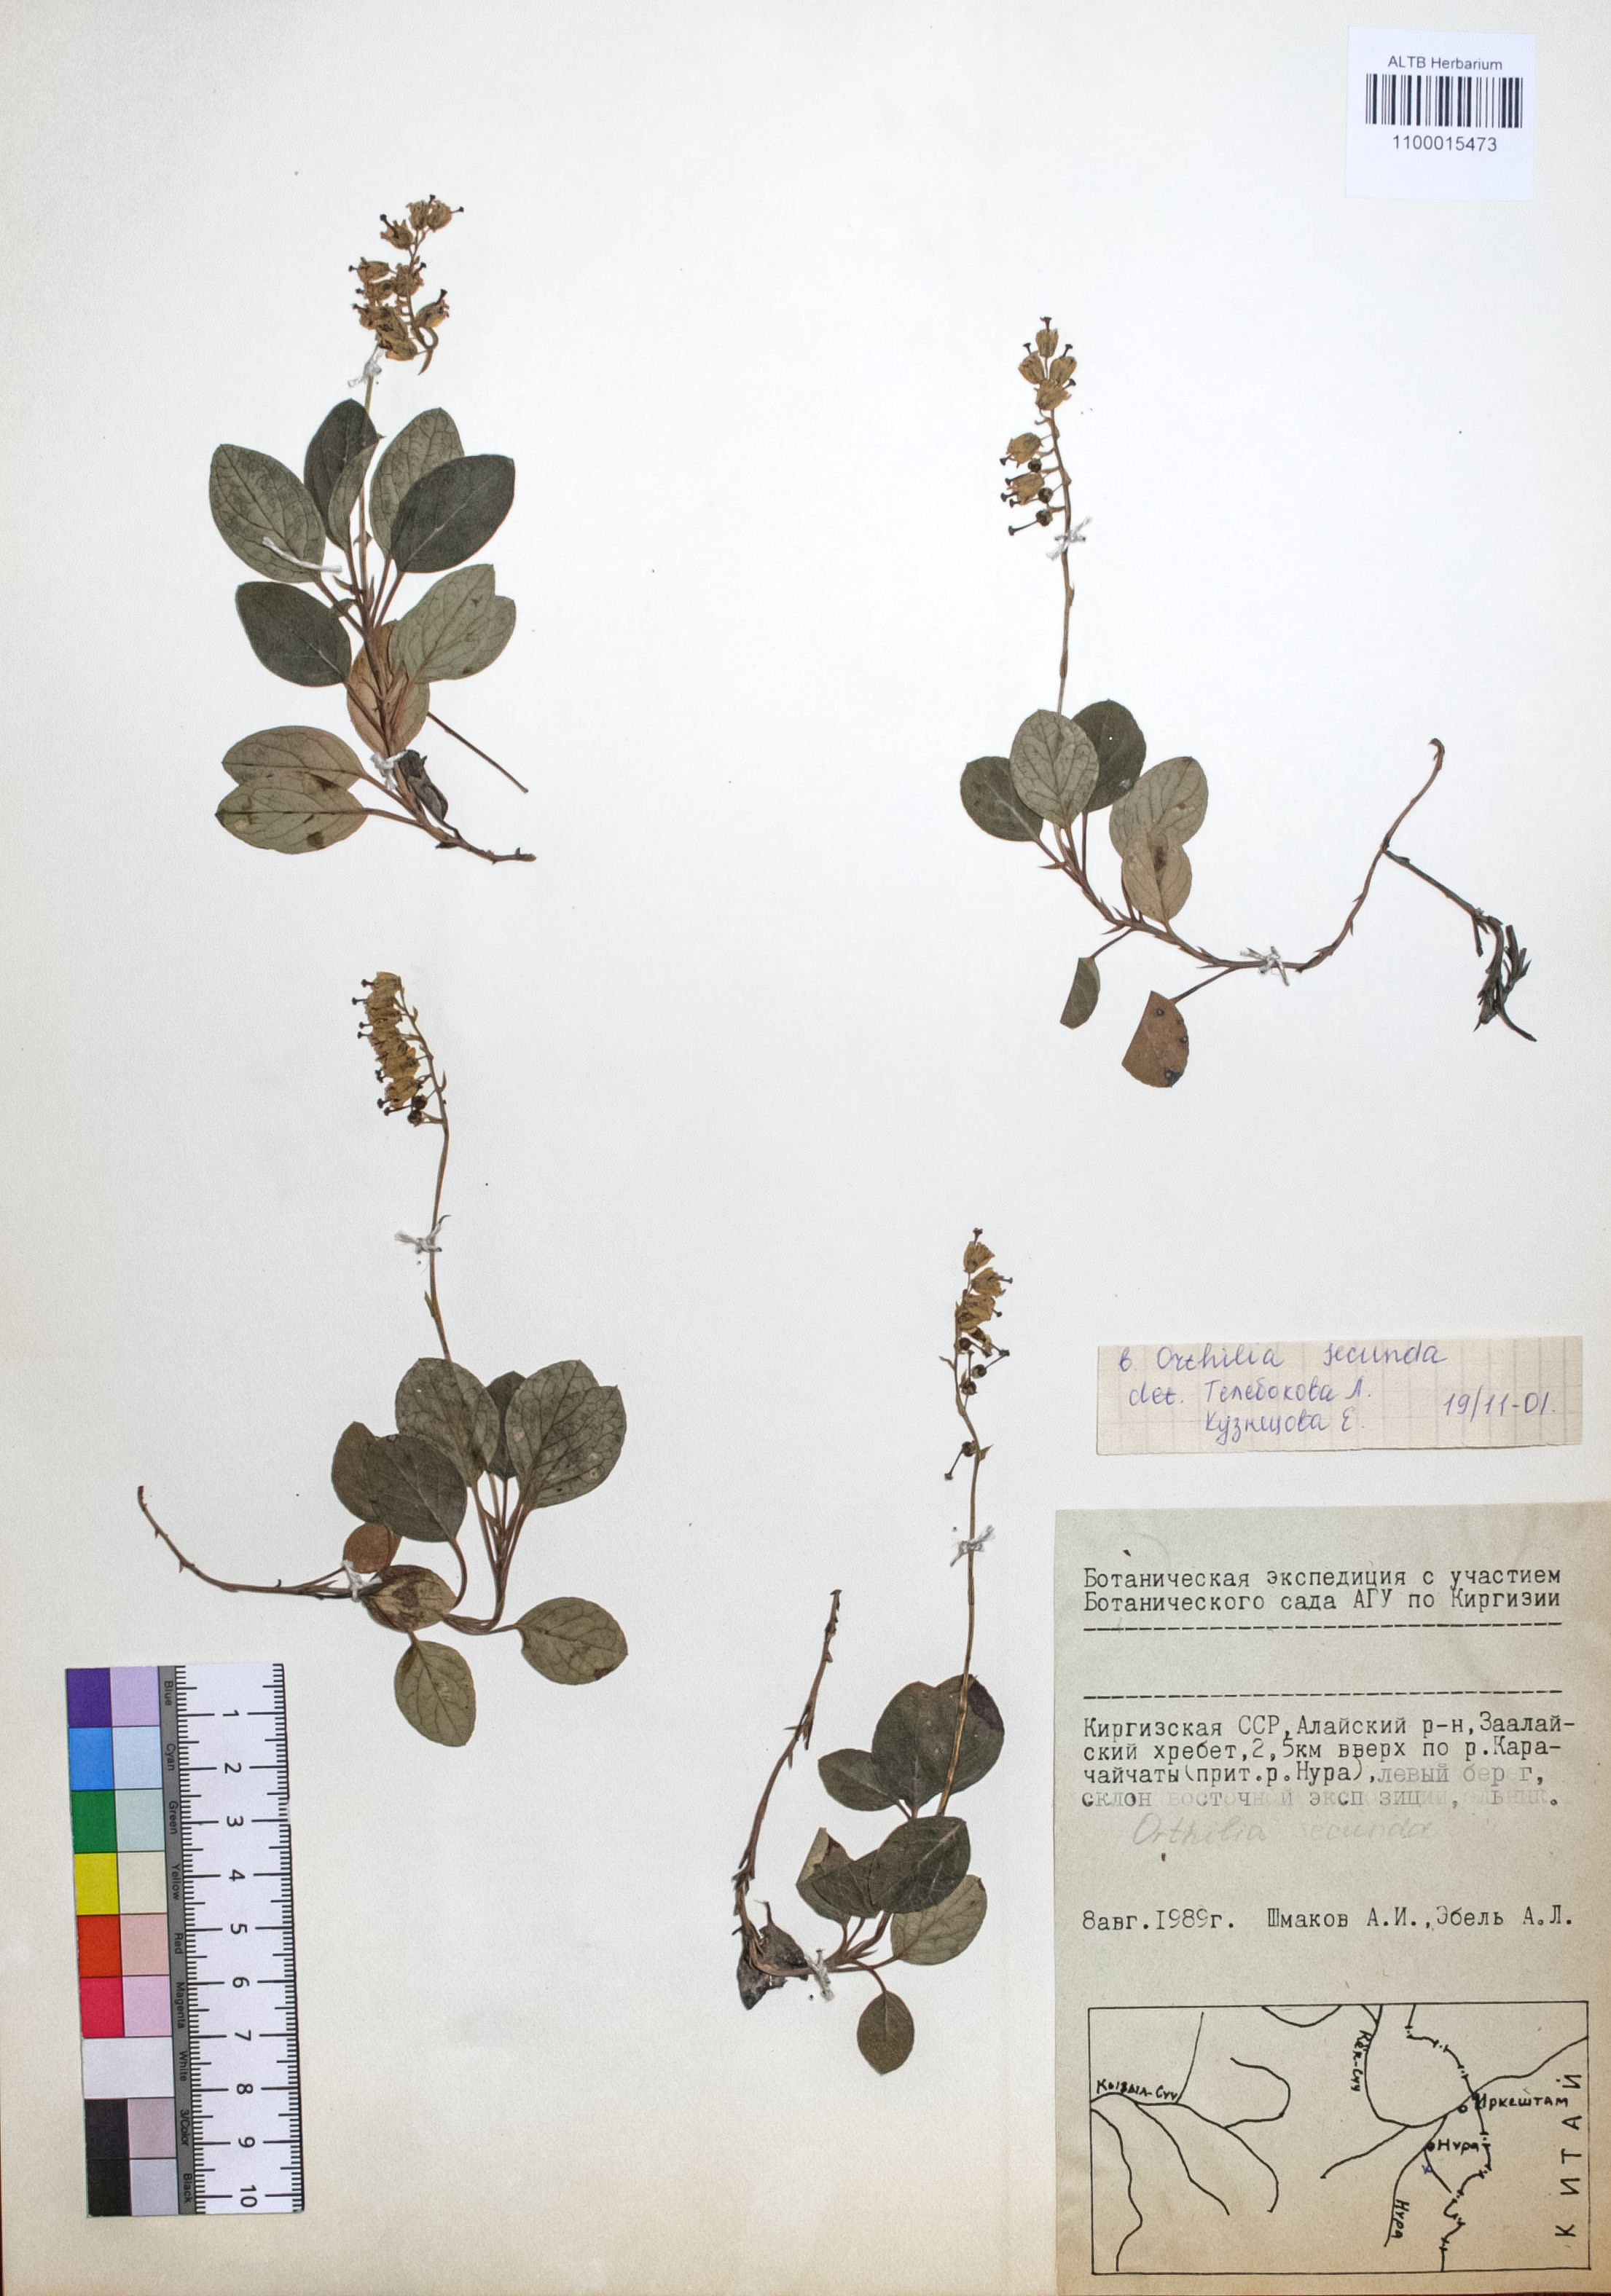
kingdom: Plantae
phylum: Tracheophyta
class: Magnoliopsida
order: Ericales
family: Ericaceae
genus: Orthilia
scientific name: Orthilia secunda
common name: One-sided orthilia
